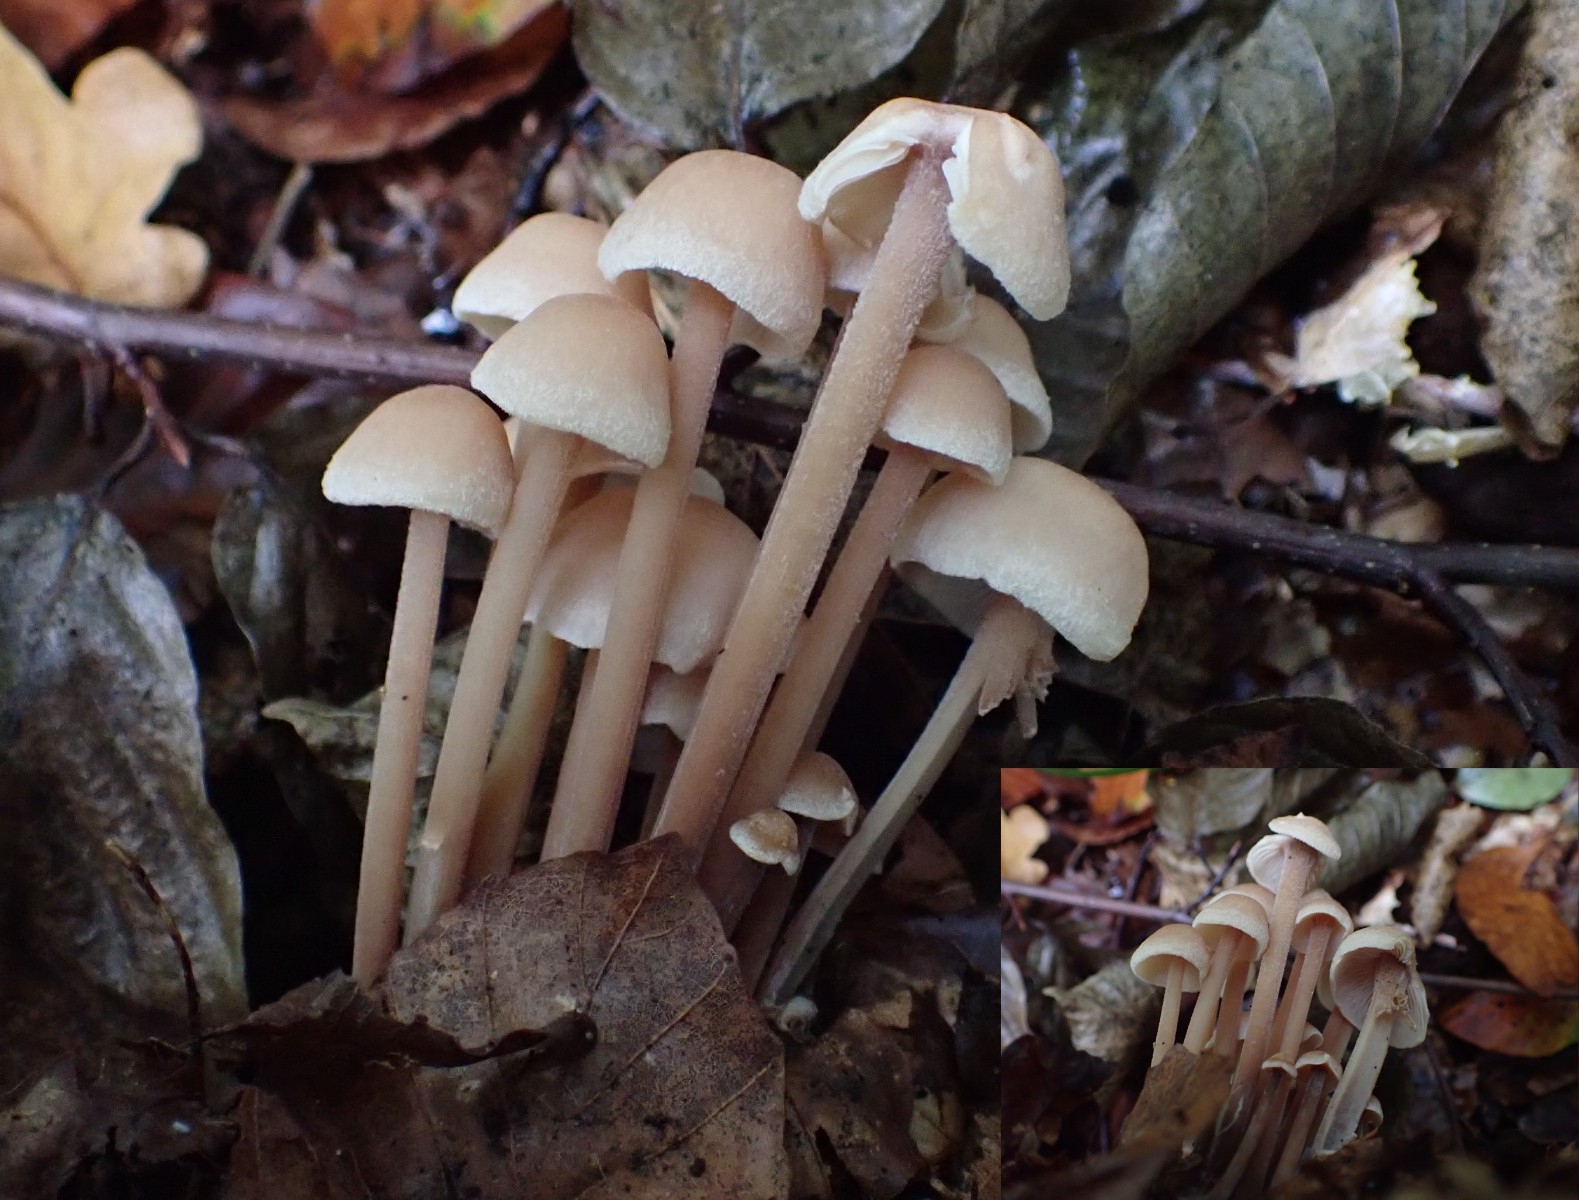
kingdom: Fungi
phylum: Basidiomycota
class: Agaricomycetes
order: Agaricales
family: Omphalotaceae
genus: Collybiopsis
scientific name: Collybiopsis confluens
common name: knippe-fladhat
